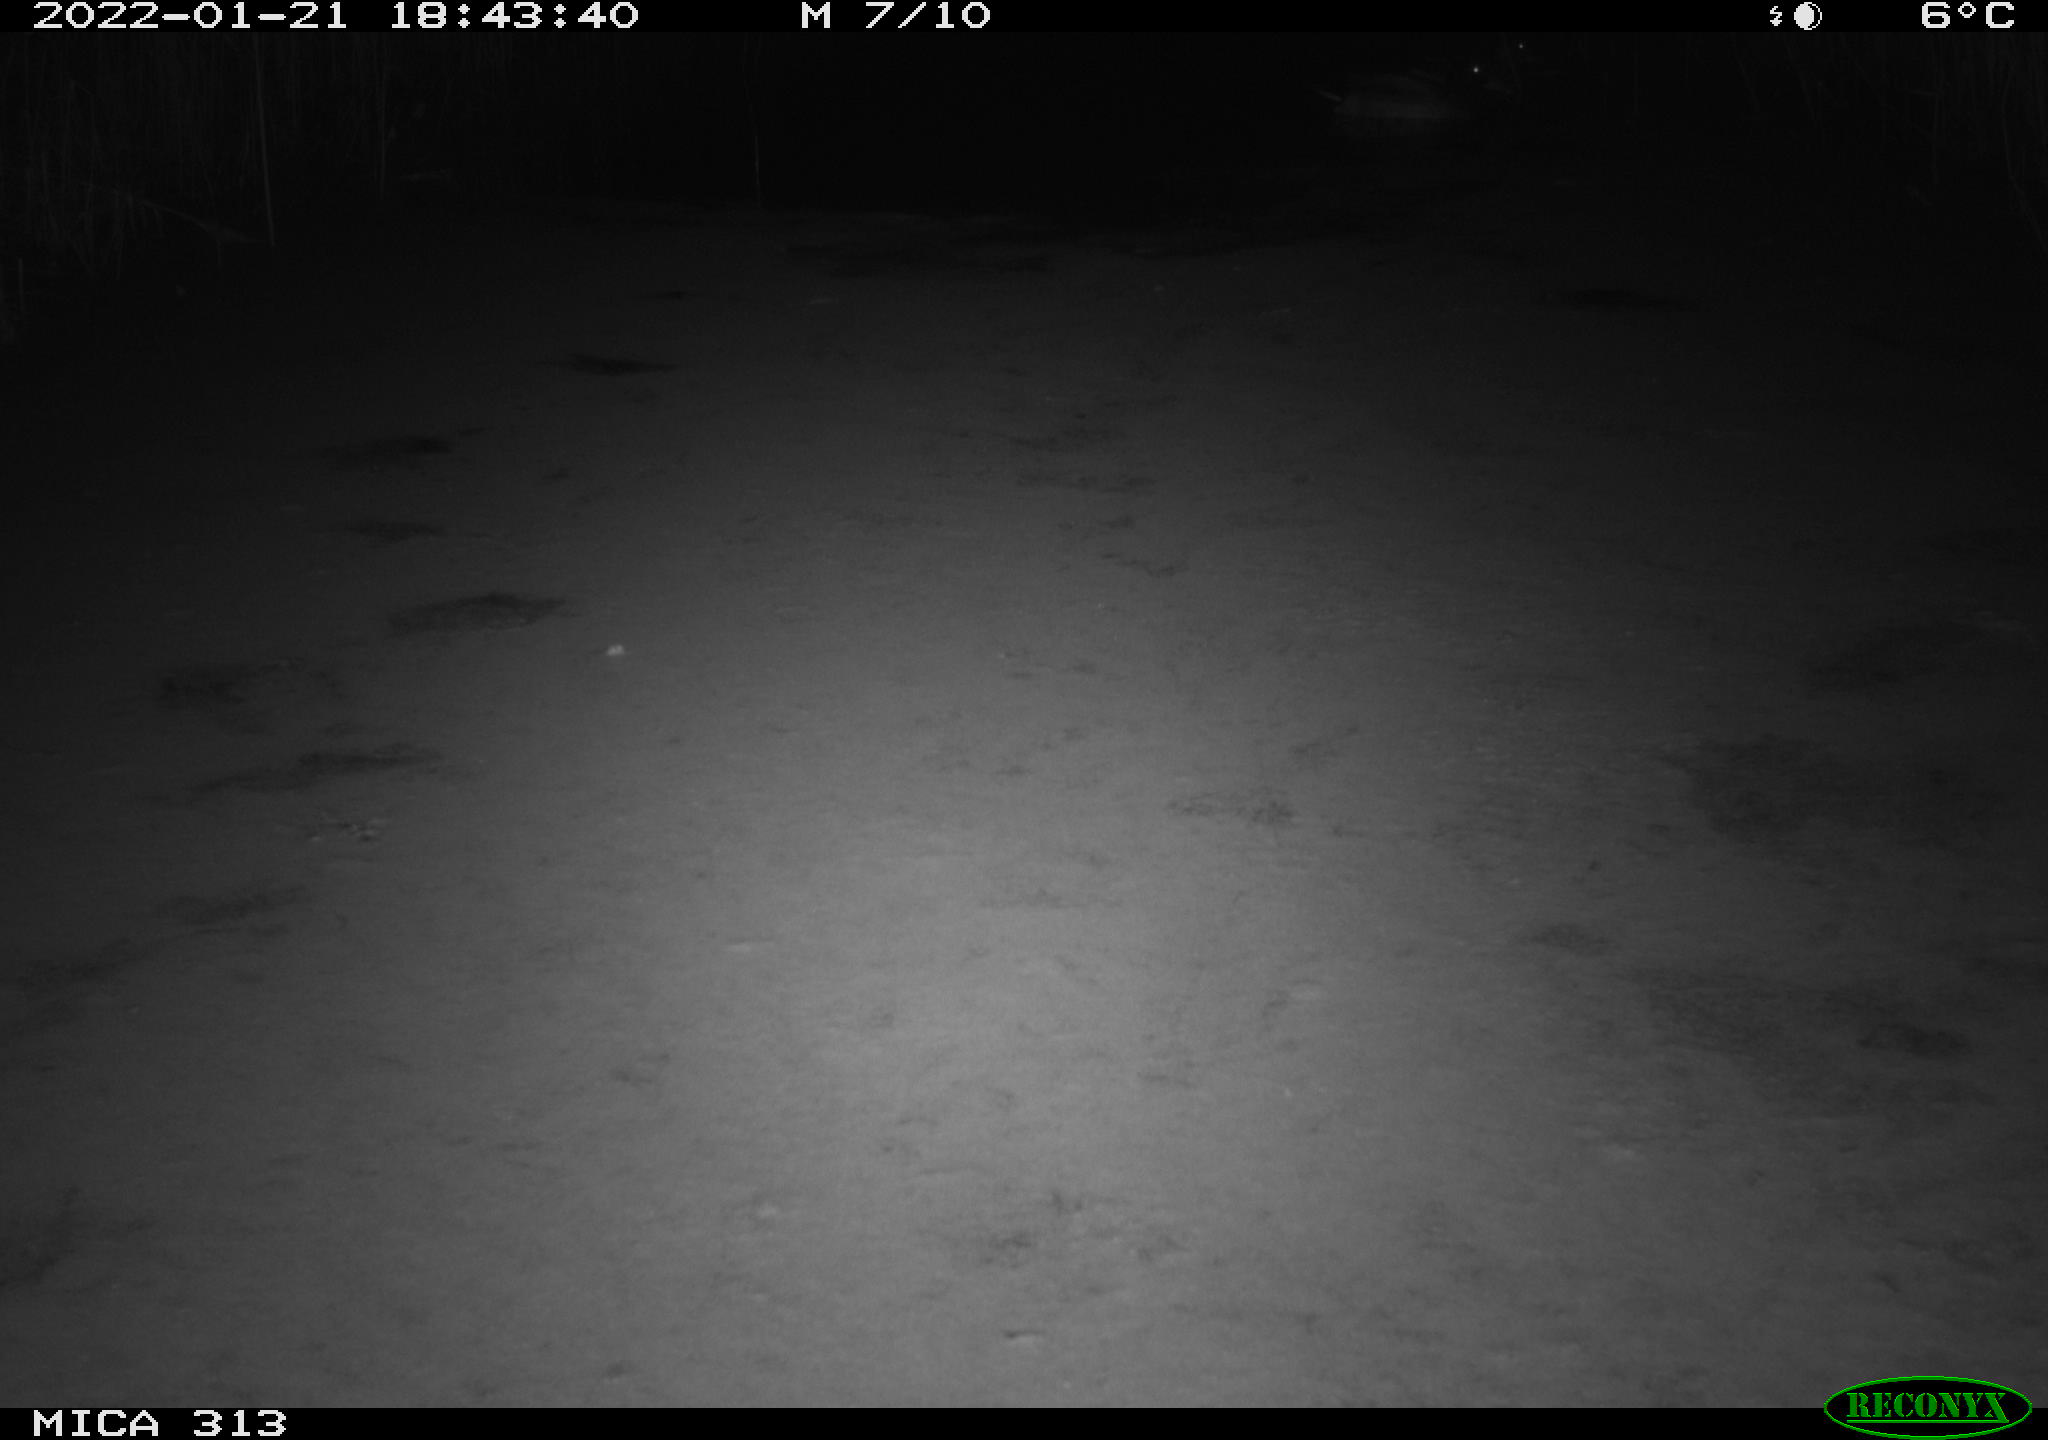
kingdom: Animalia
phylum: Chordata
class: Aves
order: Gruiformes
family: Rallidae
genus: Gallinula
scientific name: Gallinula chloropus
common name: Common moorhen
